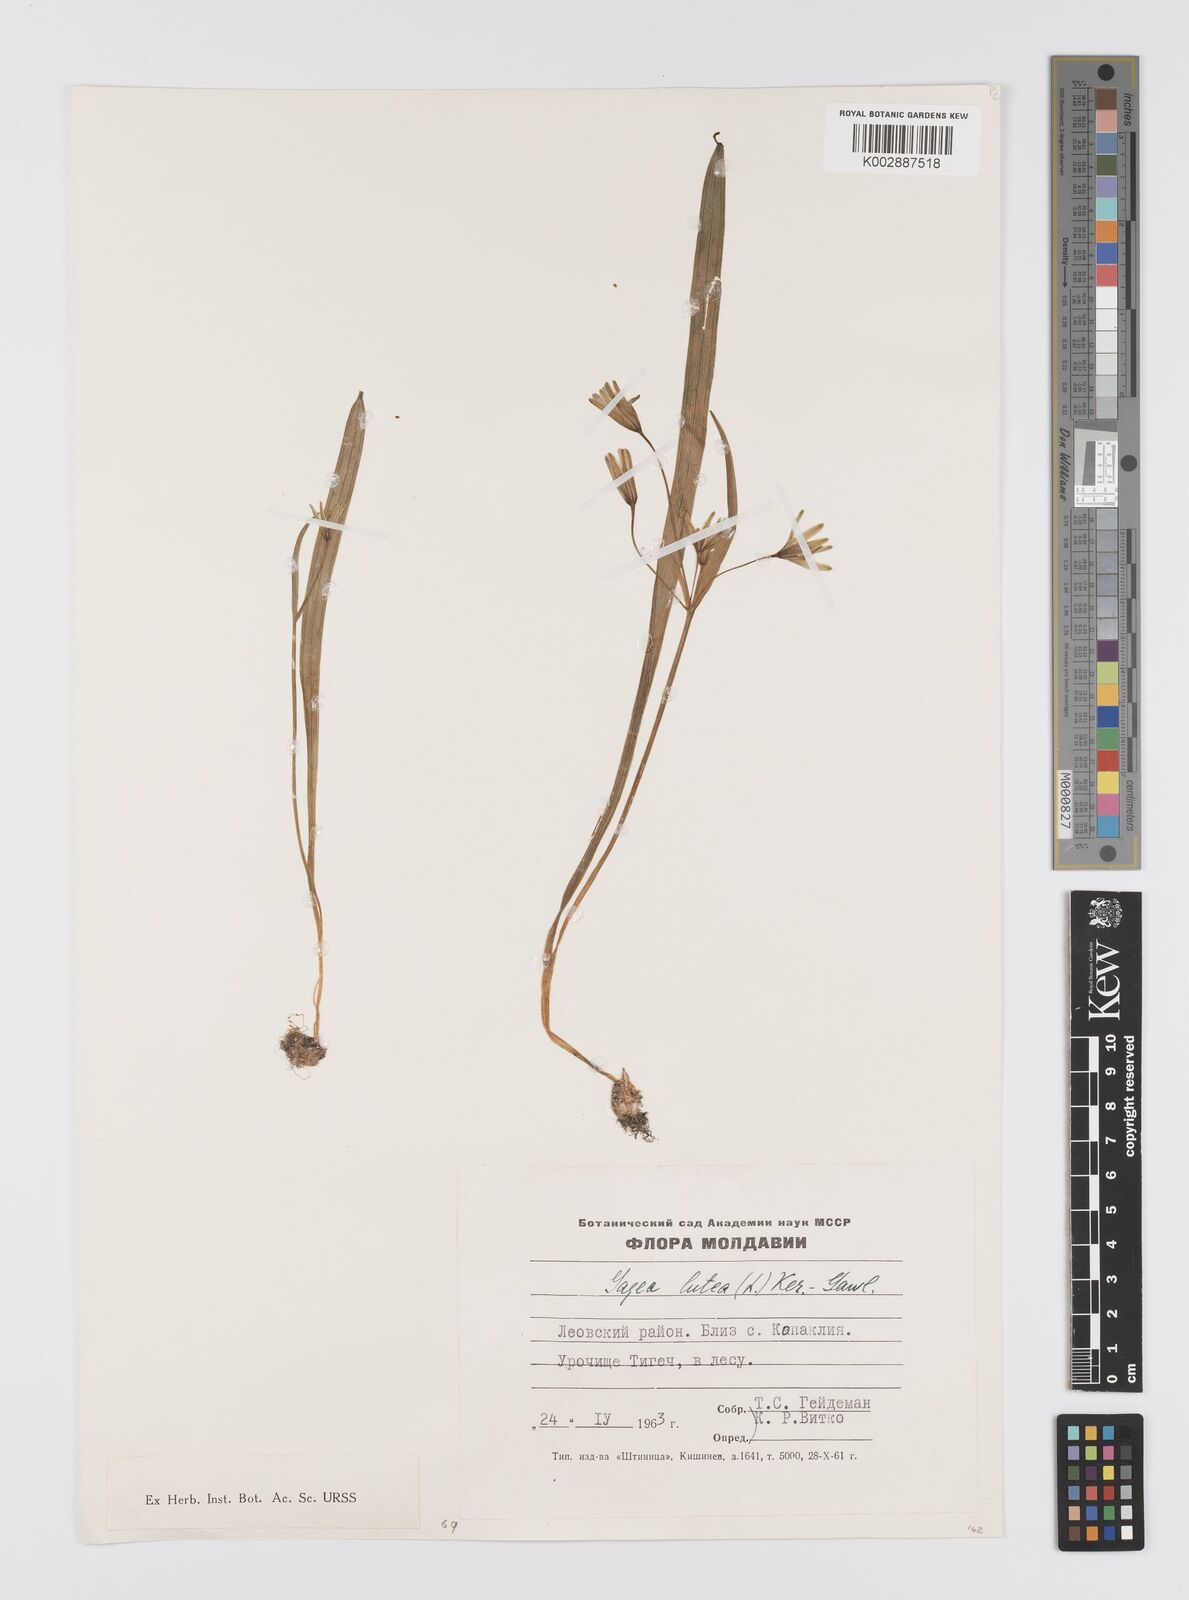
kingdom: Plantae
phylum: Tracheophyta
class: Liliopsida
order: Liliales
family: Liliaceae
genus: Gagea
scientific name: Gagea lutea
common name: Yellow star-of-bethlehem
